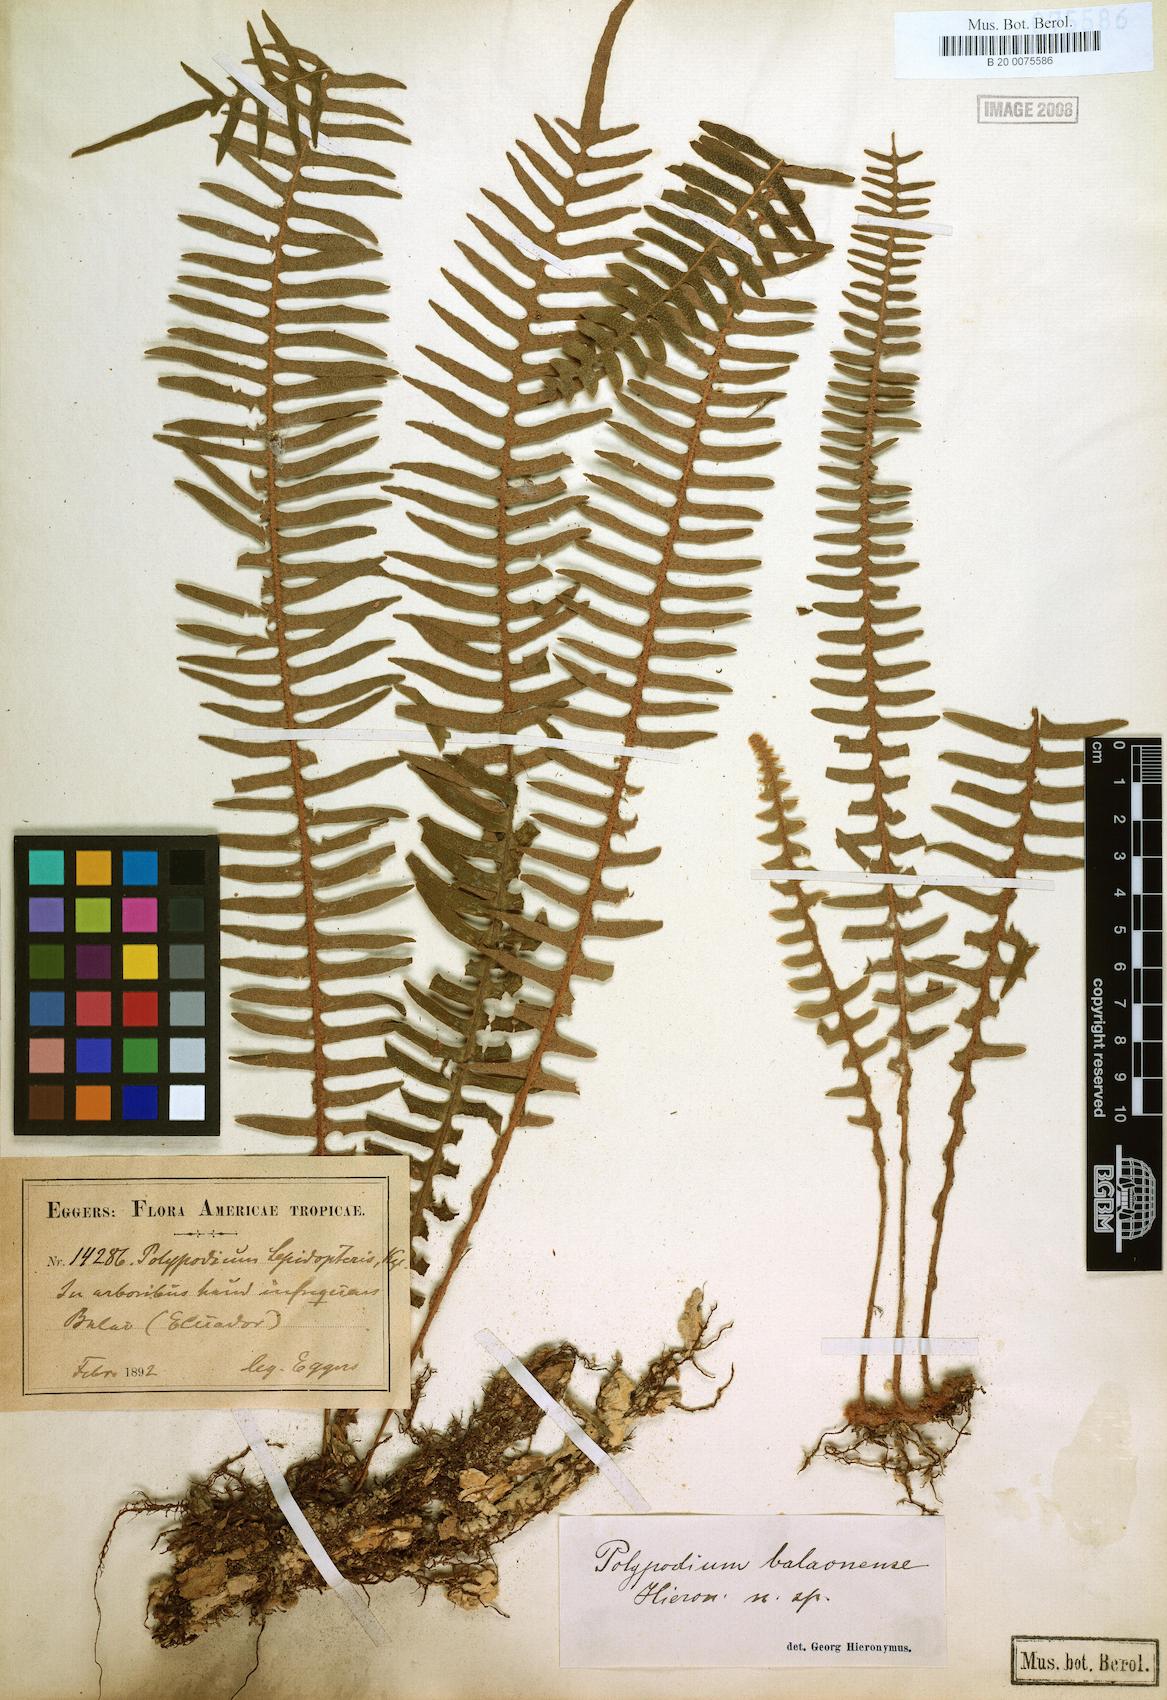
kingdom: Plantae
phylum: Tracheophyta
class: Polypodiopsida
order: Polypodiales
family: Polypodiaceae
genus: Pleopeltis
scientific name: Pleopeltis balaonensis
